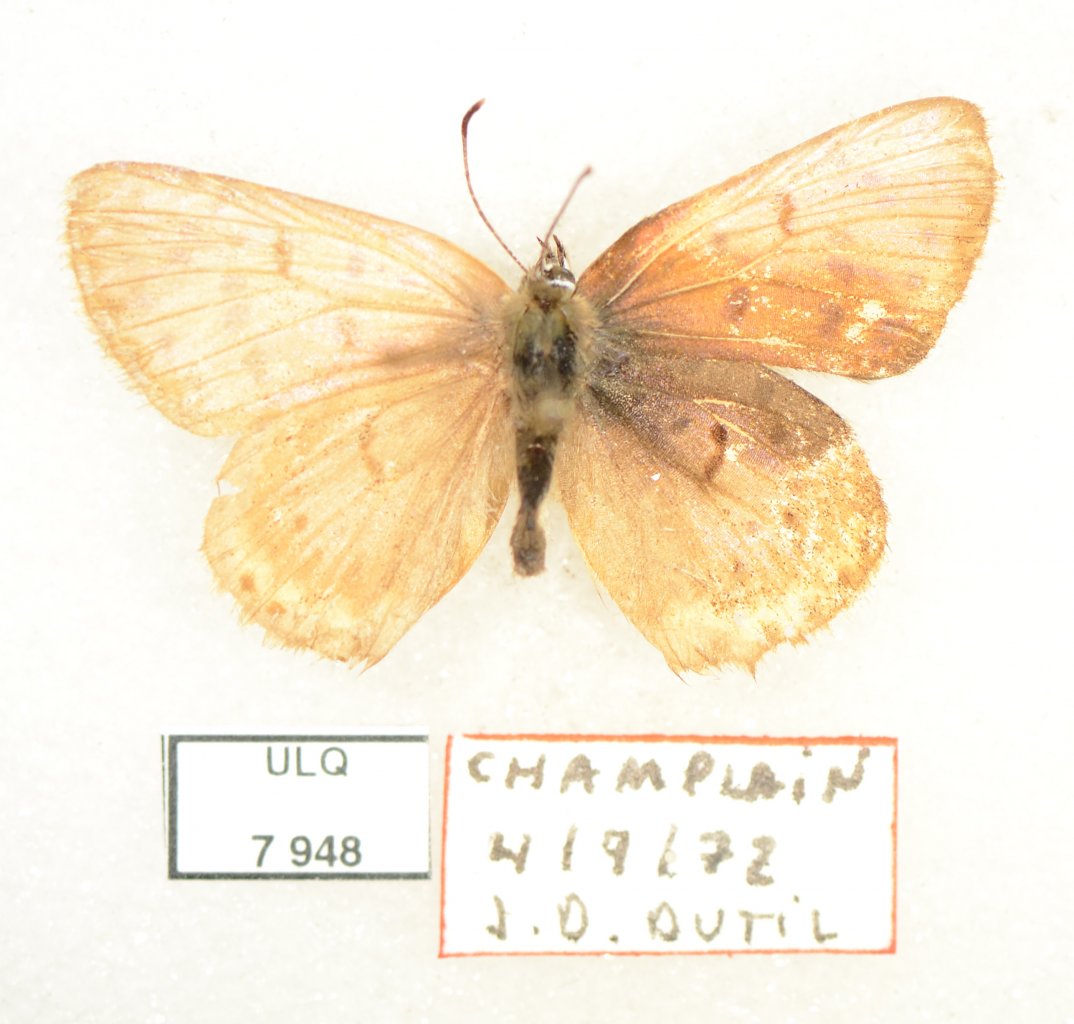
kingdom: Animalia
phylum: Arthropoda
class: Insecta
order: Lepidoptera
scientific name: Lepidoptera
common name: Butterflies
